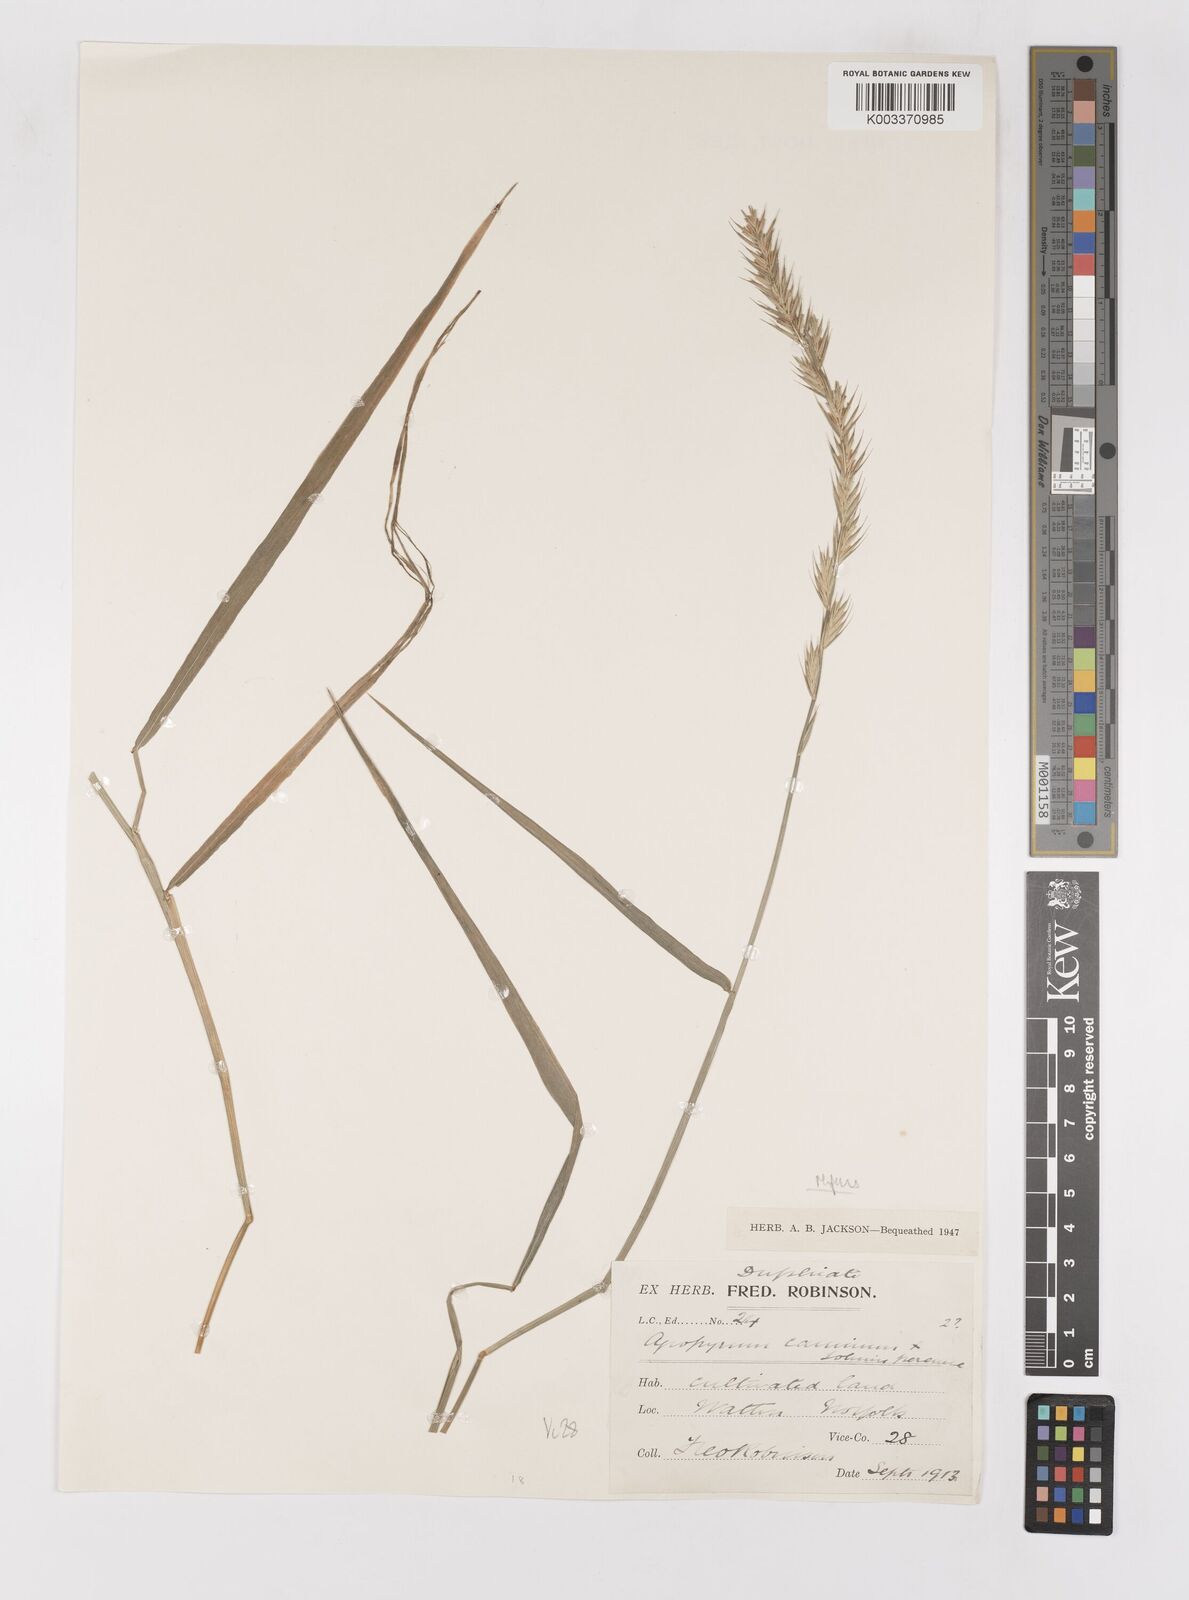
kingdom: Plantae
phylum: Tracheophyta
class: Liliopsida
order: Poales
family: Poaceae
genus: Elymus
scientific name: Elymus repens
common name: Quackgrass
